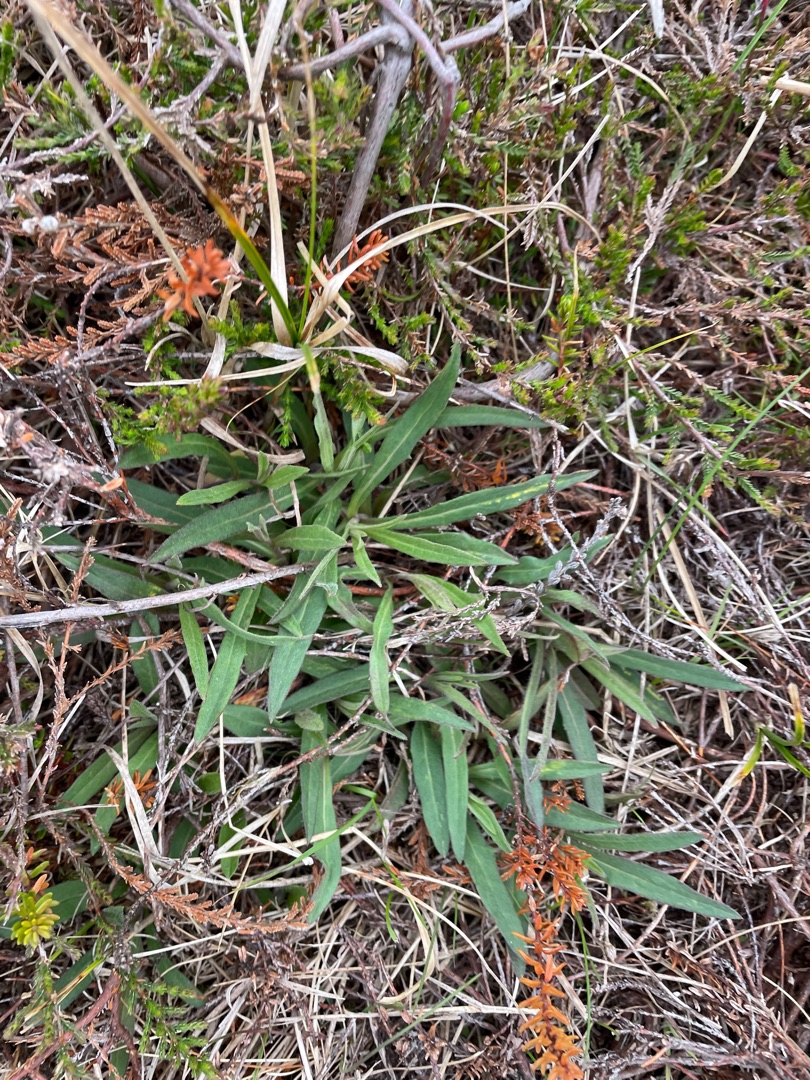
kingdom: Plantae
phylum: Tracheophyta
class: Magnoliopsida
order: Asterales
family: Asteraceae
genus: Hieracioides
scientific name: Hieracioides
